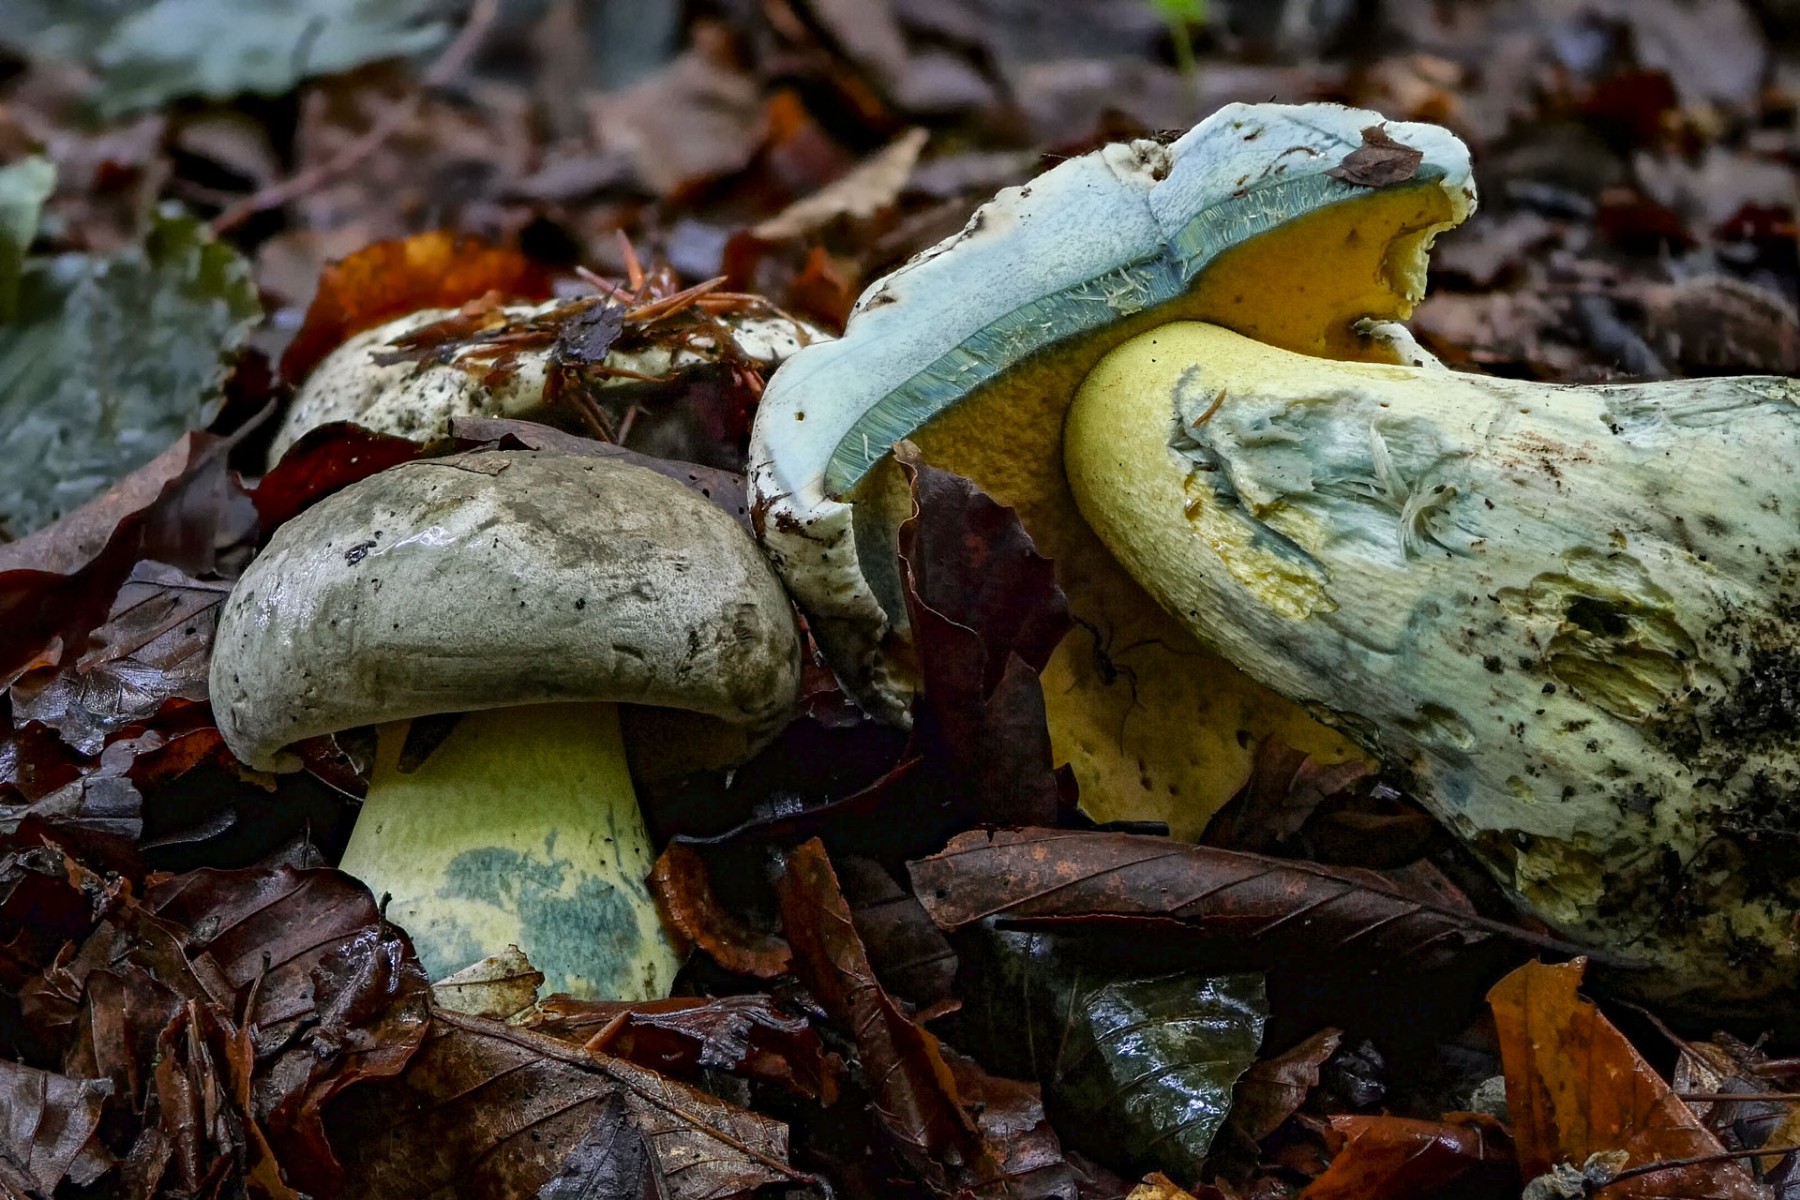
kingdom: Fungi
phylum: Basidiomycota
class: Agaricomycetes
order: Boletales
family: Boletaceae
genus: Caloboletus
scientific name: Caloboletus radicans
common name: rod-rørhat
